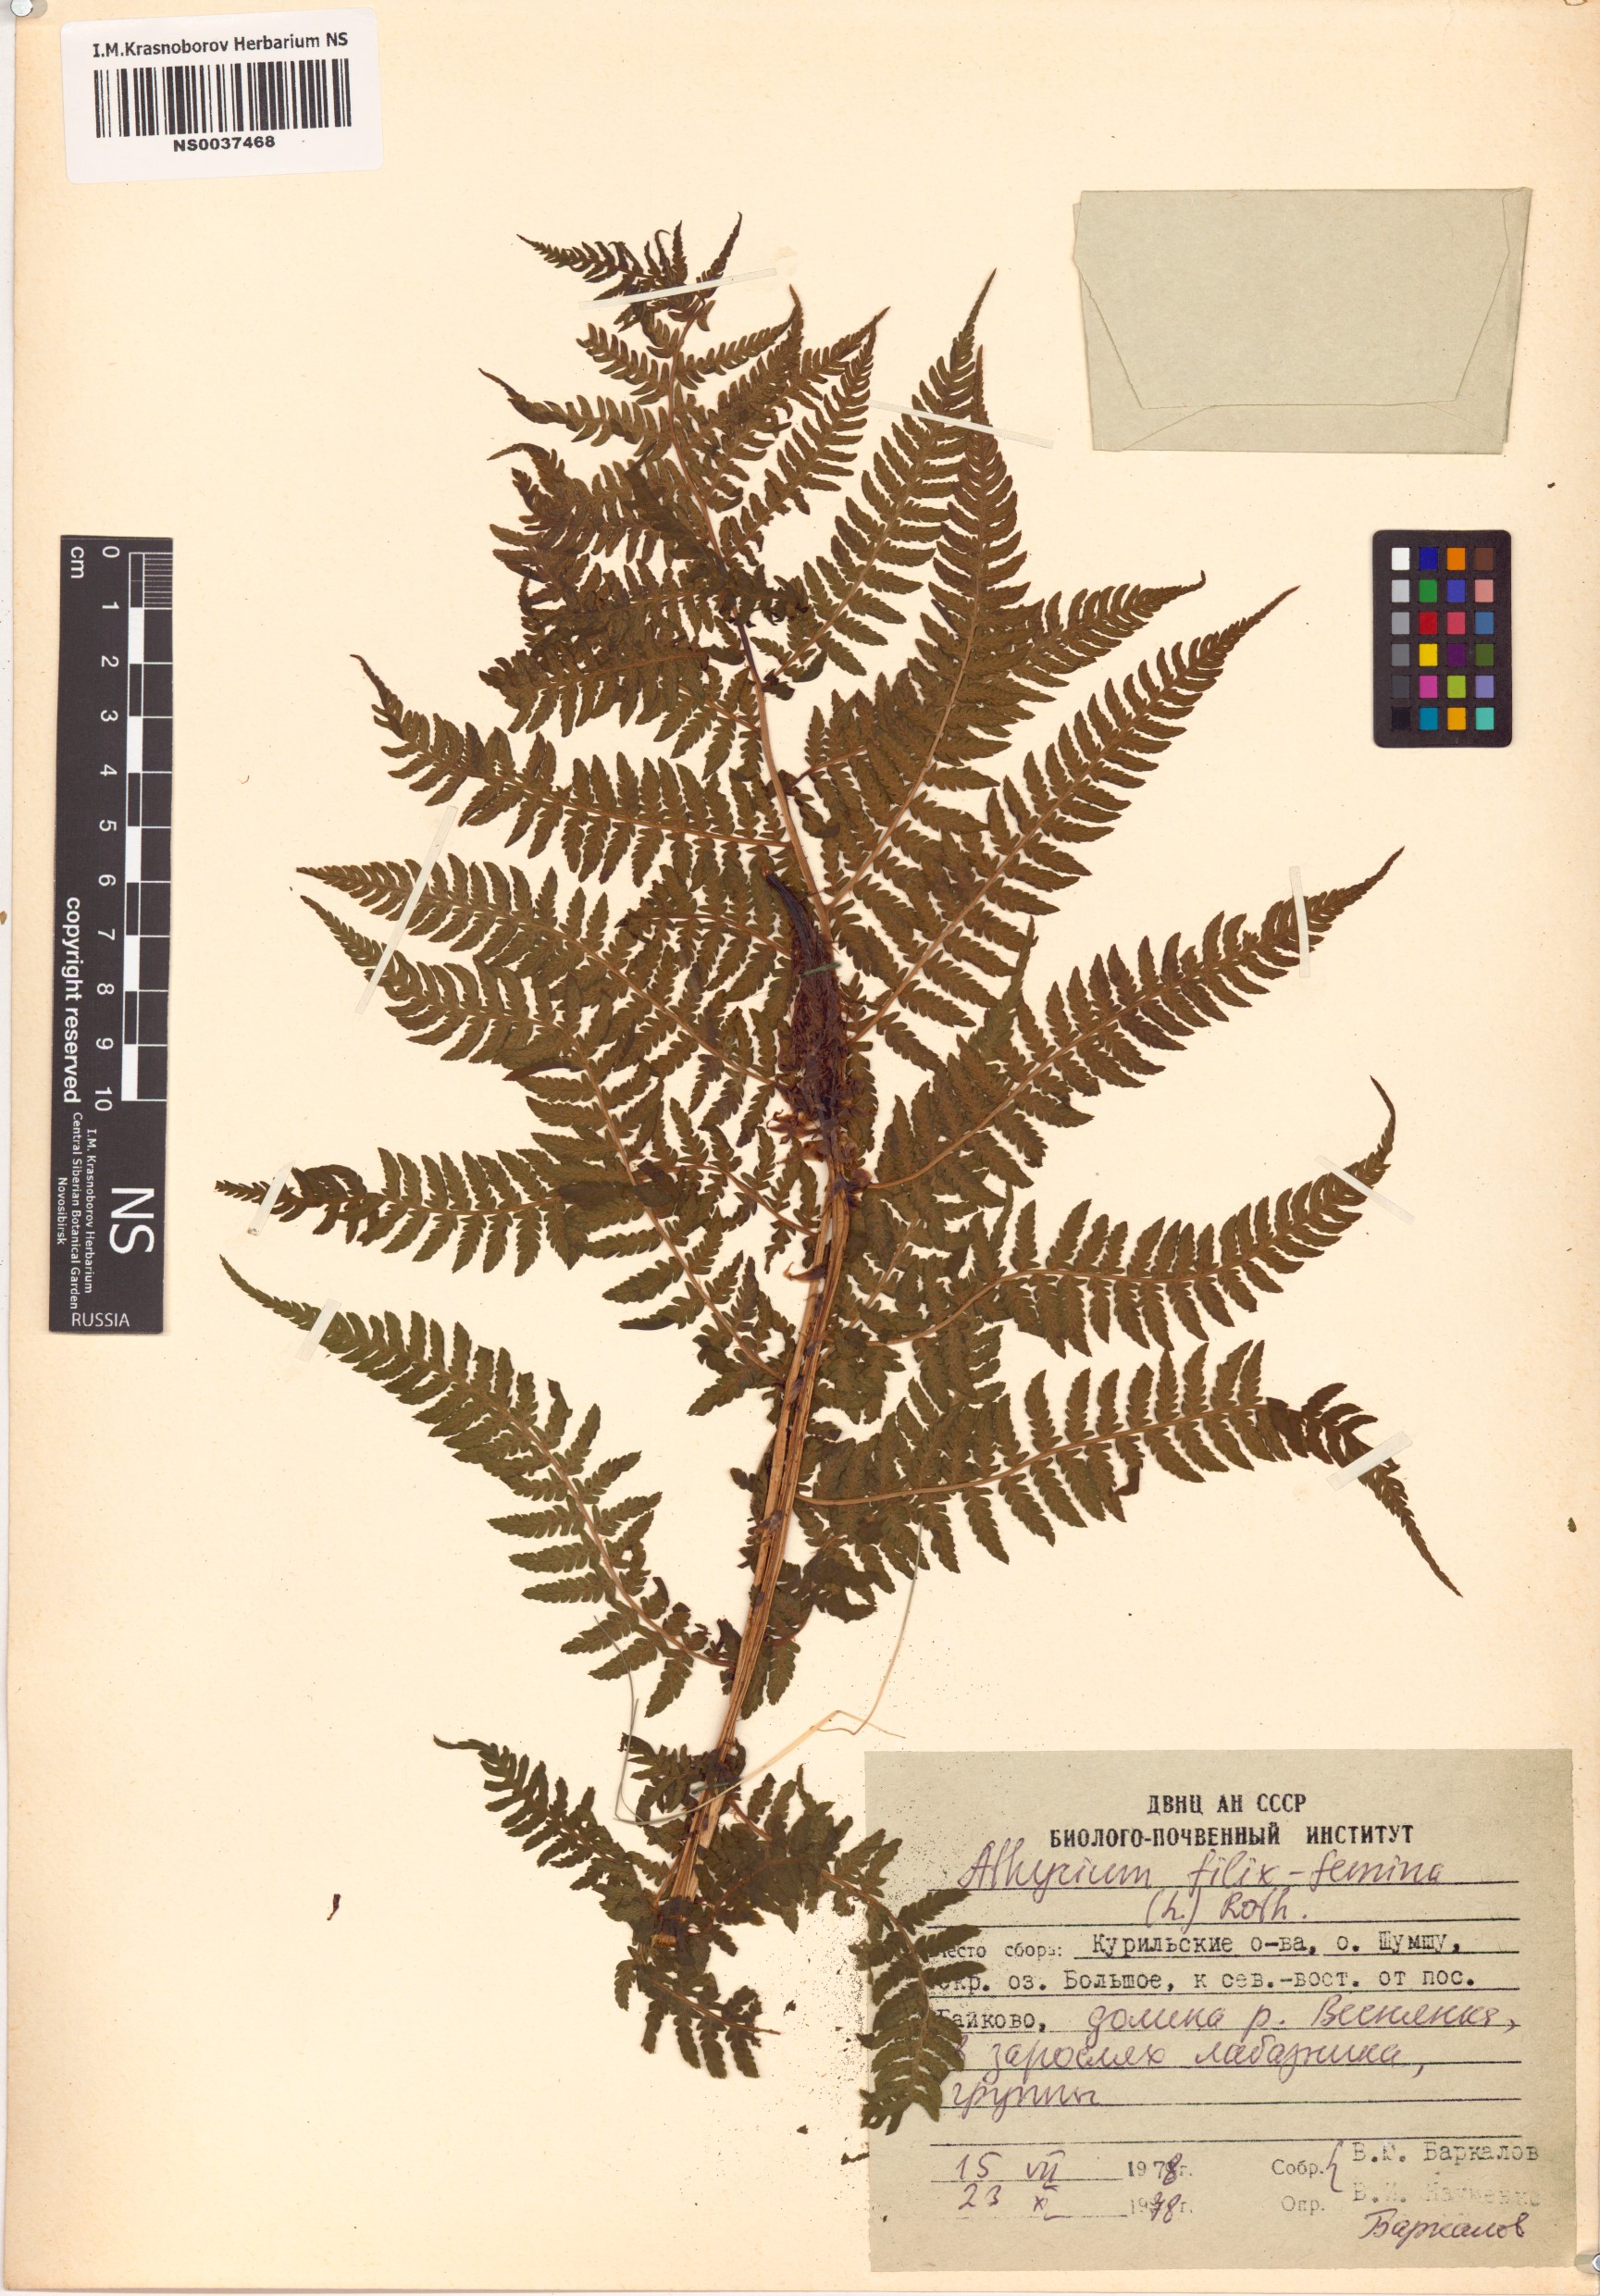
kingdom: Plantae
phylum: Tracheophyta
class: Polypodiopsida
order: Polypodiales
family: Athyriaceae
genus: Athyrium
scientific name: Athyrium filix-femina
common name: Lady fern
